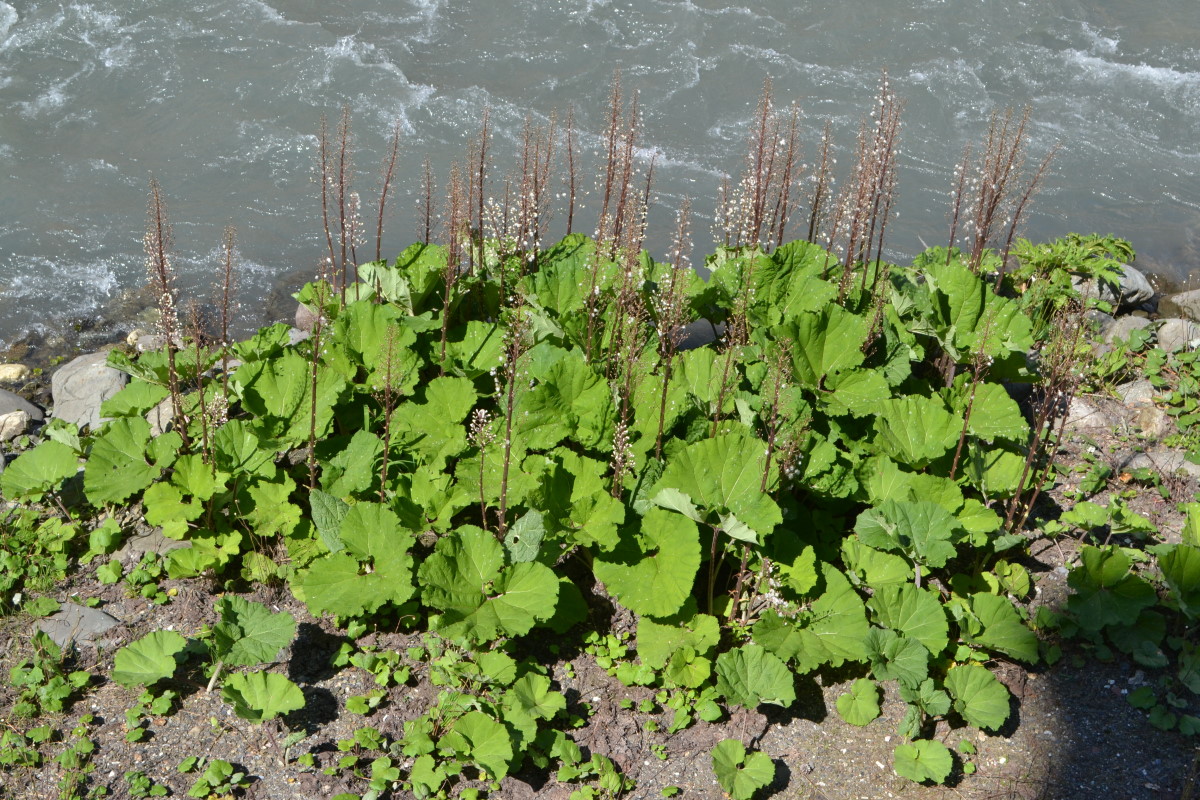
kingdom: Plantae
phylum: Tracheophyta
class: Magnoliopsida
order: Asterales
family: Asteraceae
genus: Petasites
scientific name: Petasites
